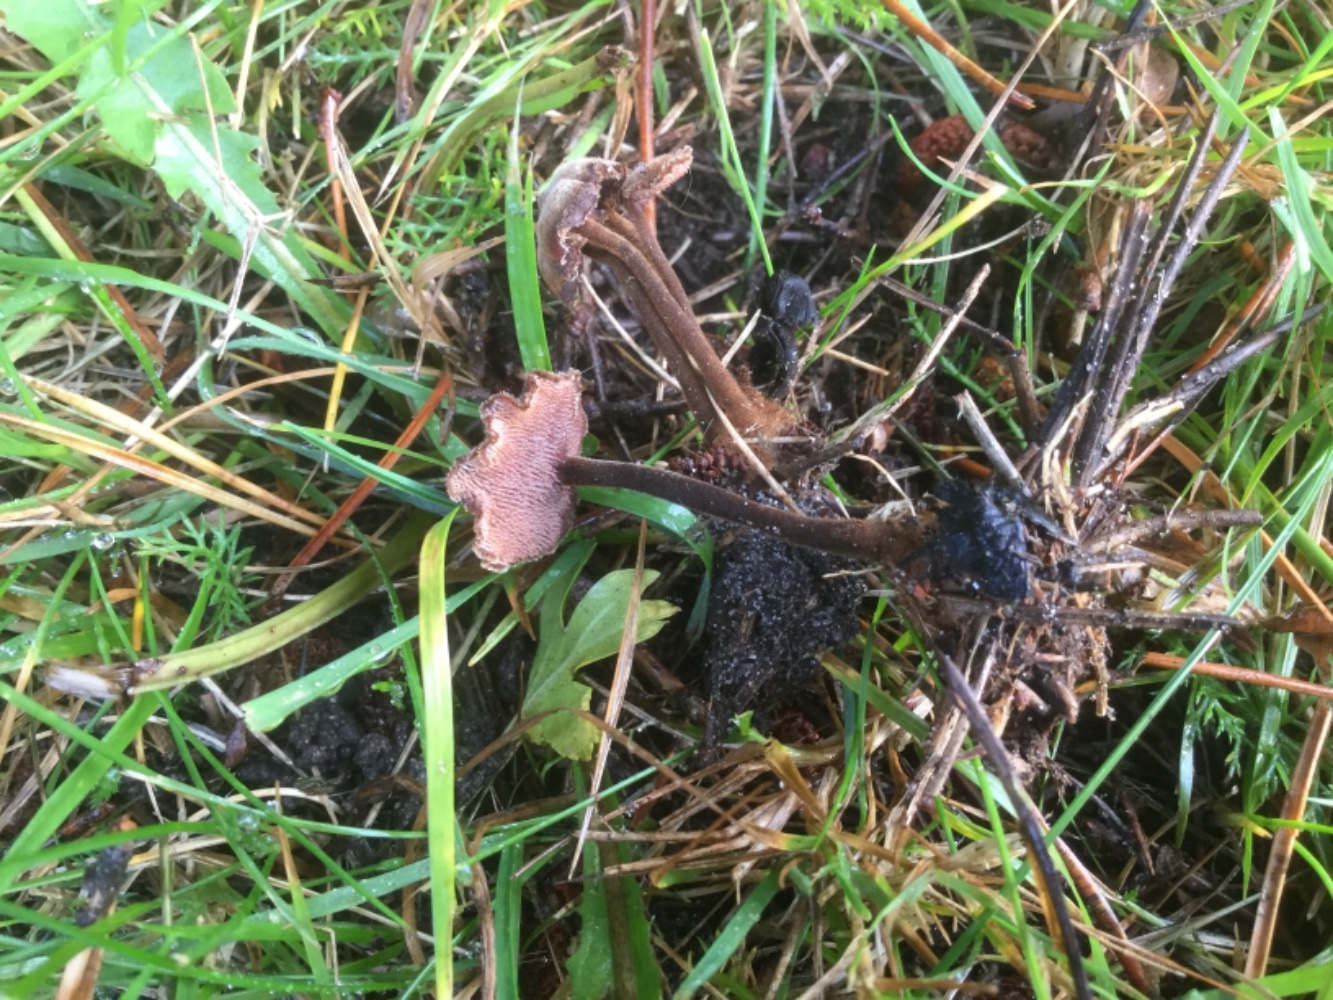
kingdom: Fungi
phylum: Basidiomycota
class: Agaricomycetes
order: Russulales
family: Auriscalpiaceae
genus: Auriscalpium
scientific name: Auriscalpium vulgare
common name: koglepigsvamp
